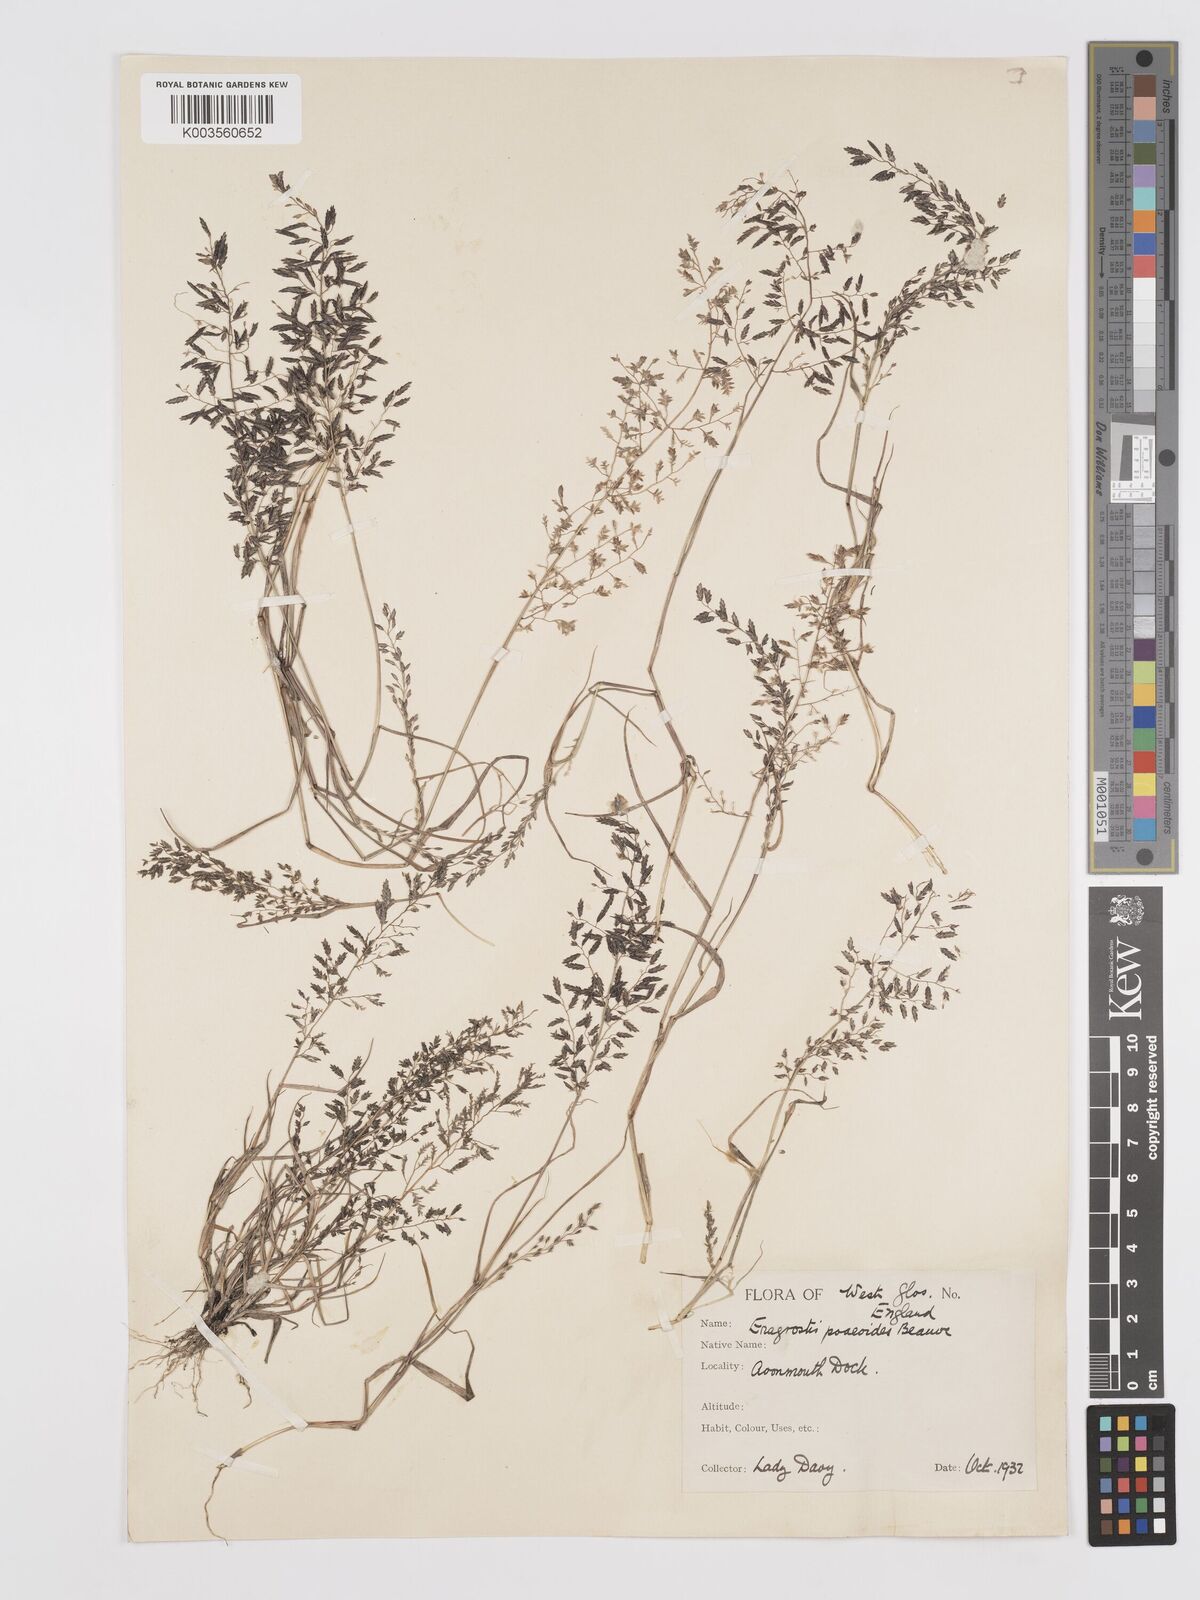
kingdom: Plantae
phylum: Tracheophyta
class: Liliopsida
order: Poales
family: Poaceae
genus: Eragrostis
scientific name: Eragrostis minor
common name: Small love-grass
